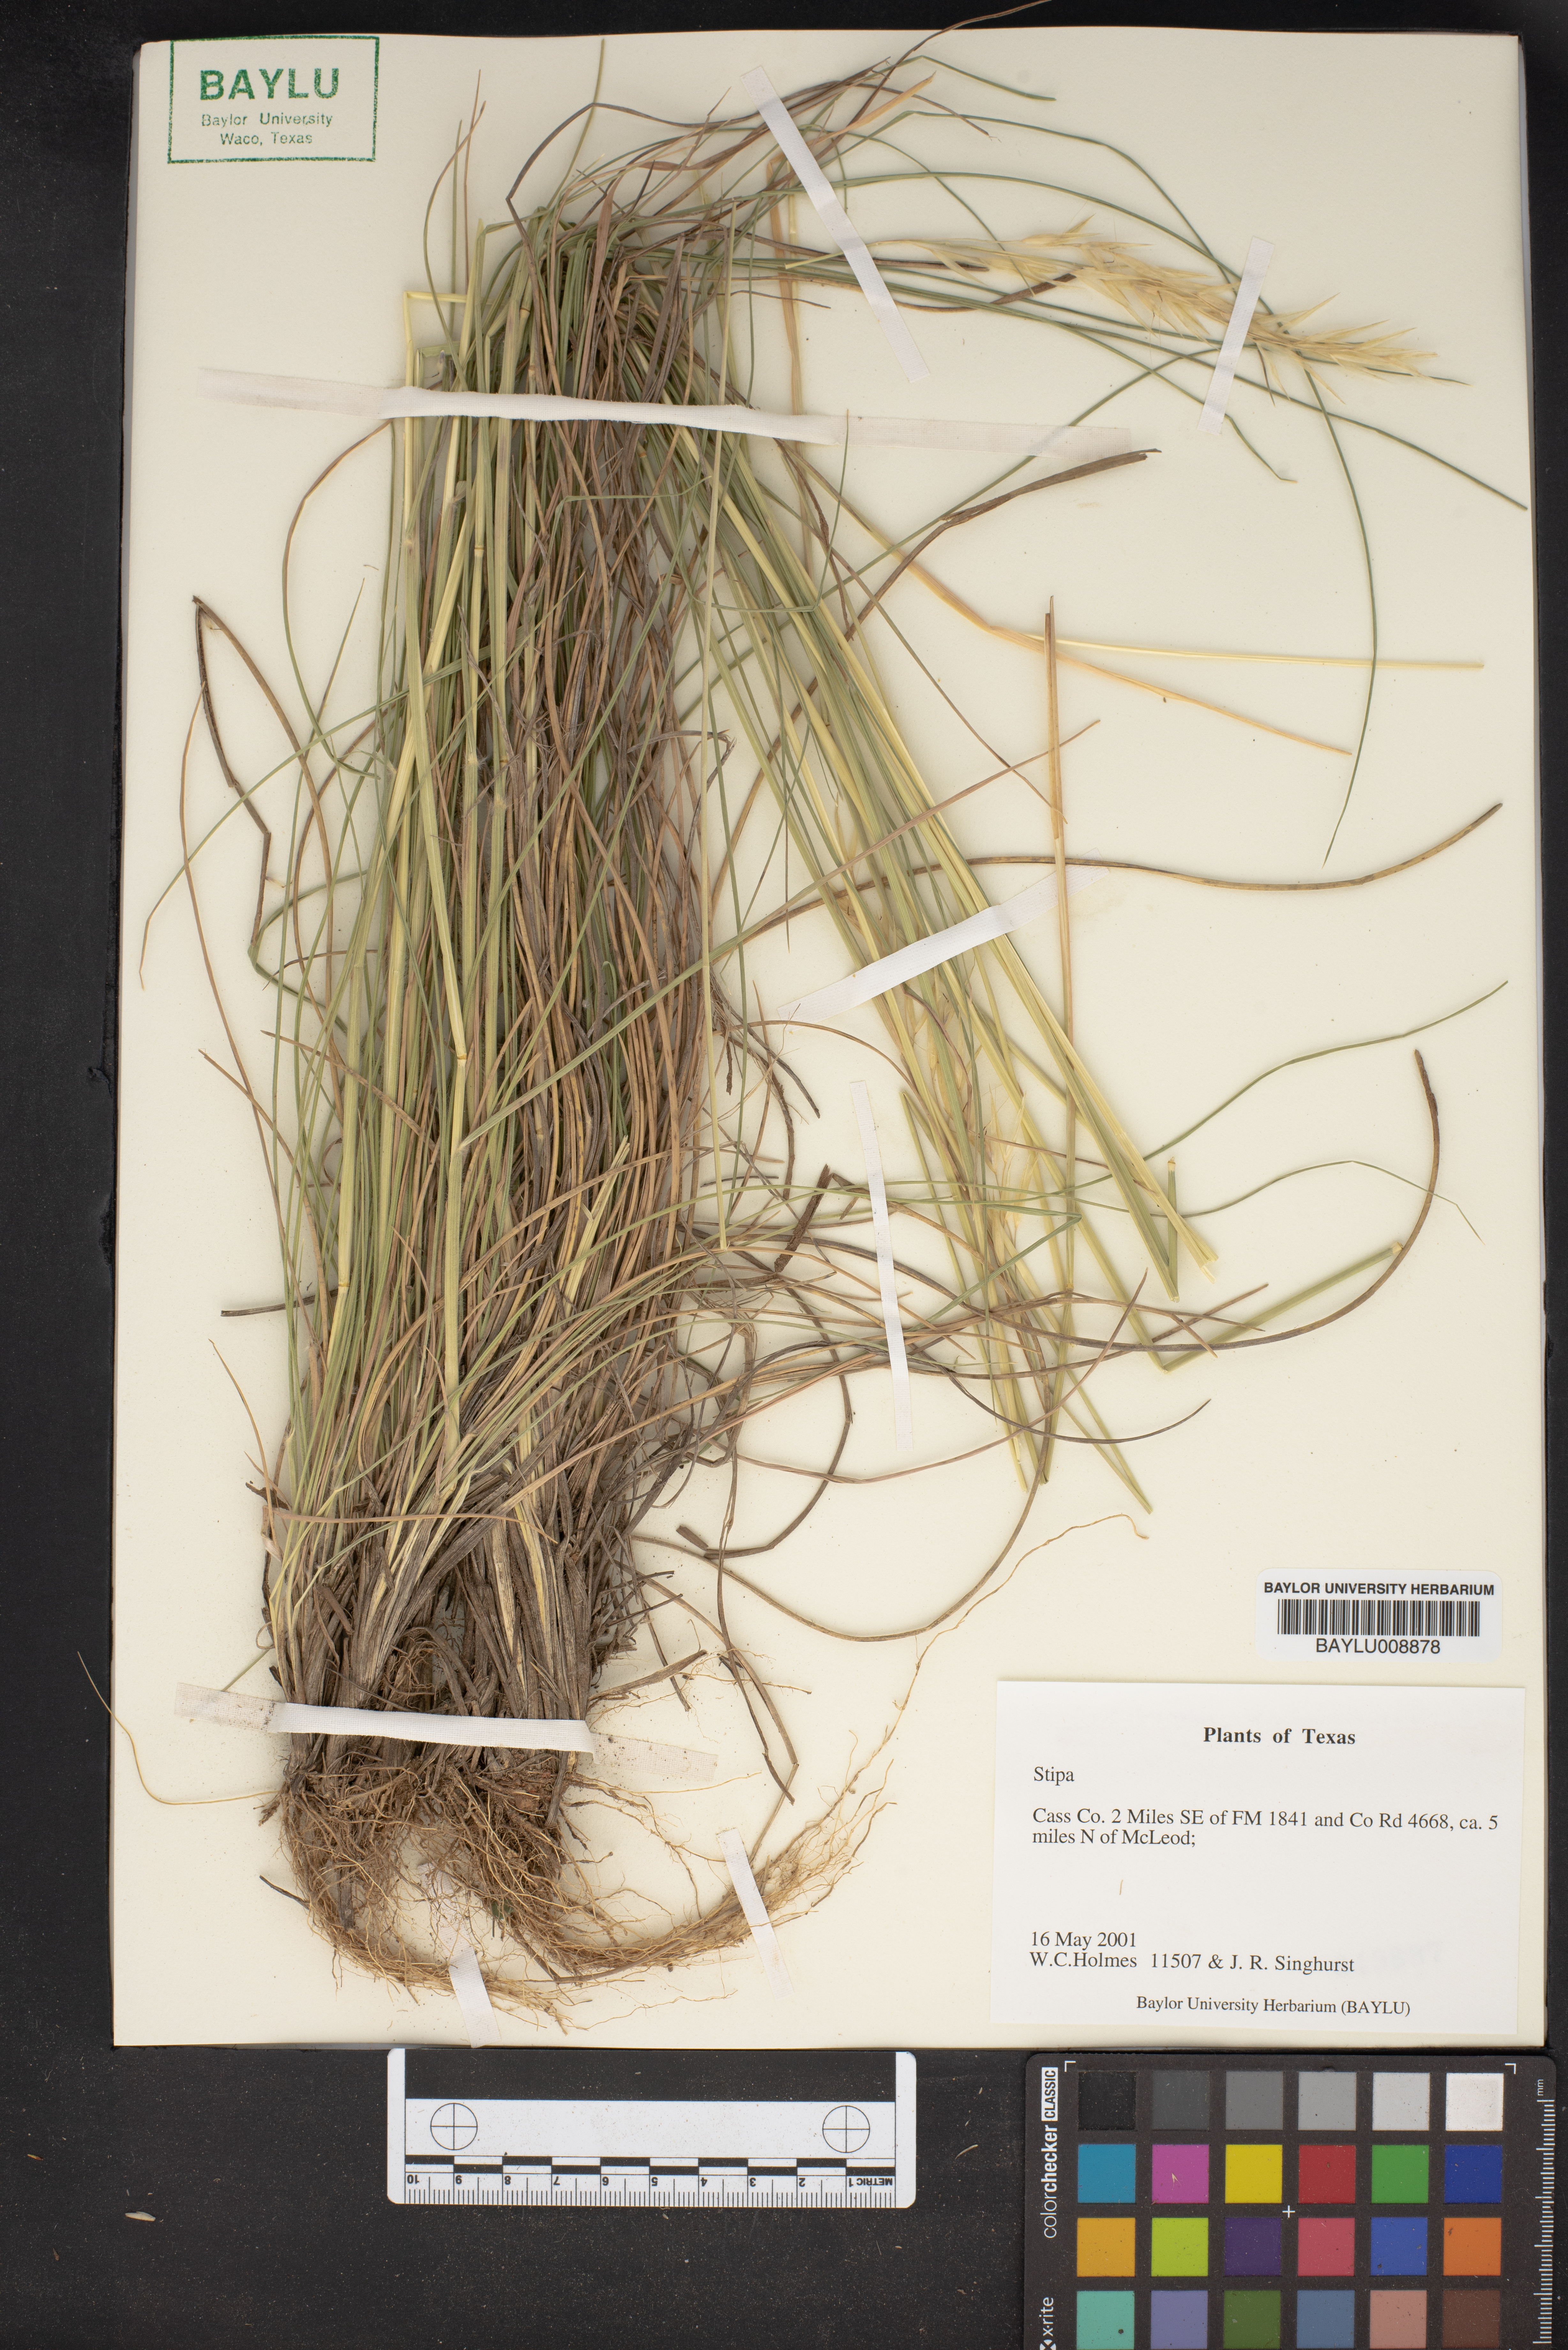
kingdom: Plantae
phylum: Tracheophyta
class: Liliopsida
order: Poales
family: Poaceae
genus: Stipa
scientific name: Stipa
